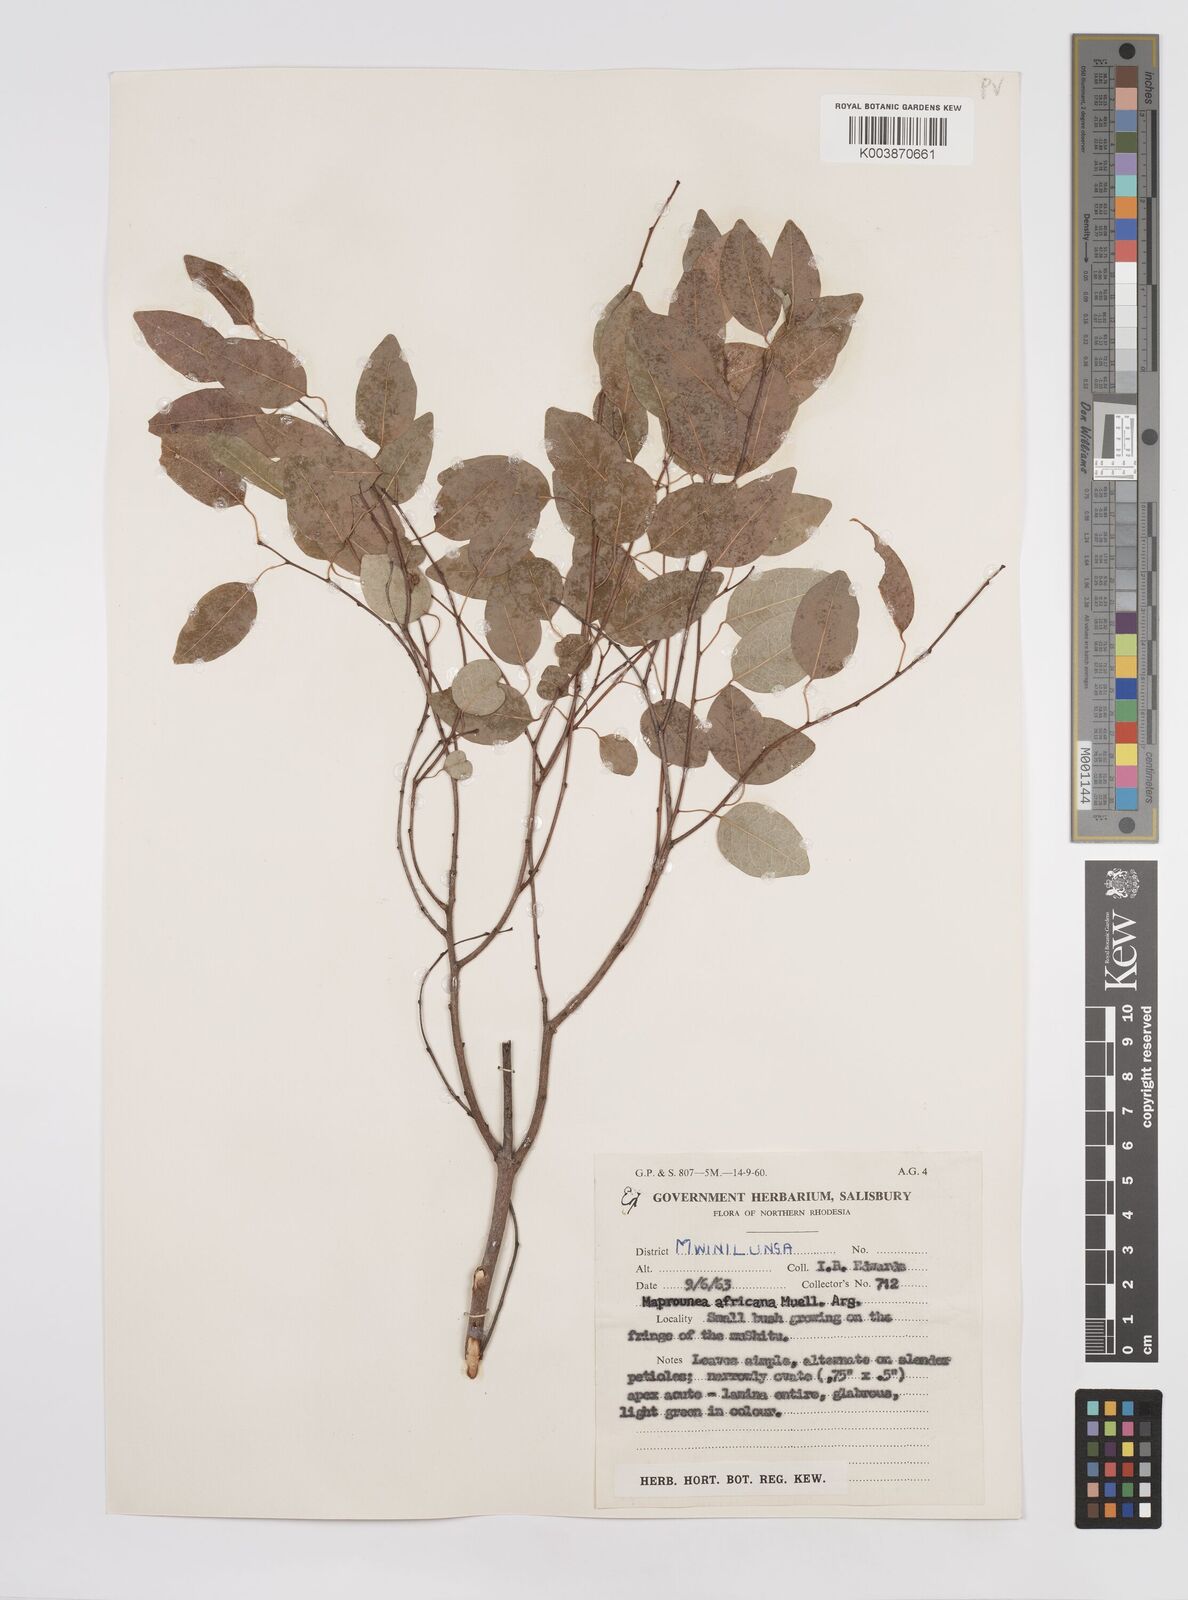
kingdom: Plantae
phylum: Tracheophyta
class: Magnoliopsida
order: Malpighiales
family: Euphorbiaceae
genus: Maprounea
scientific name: Maprounea africana
